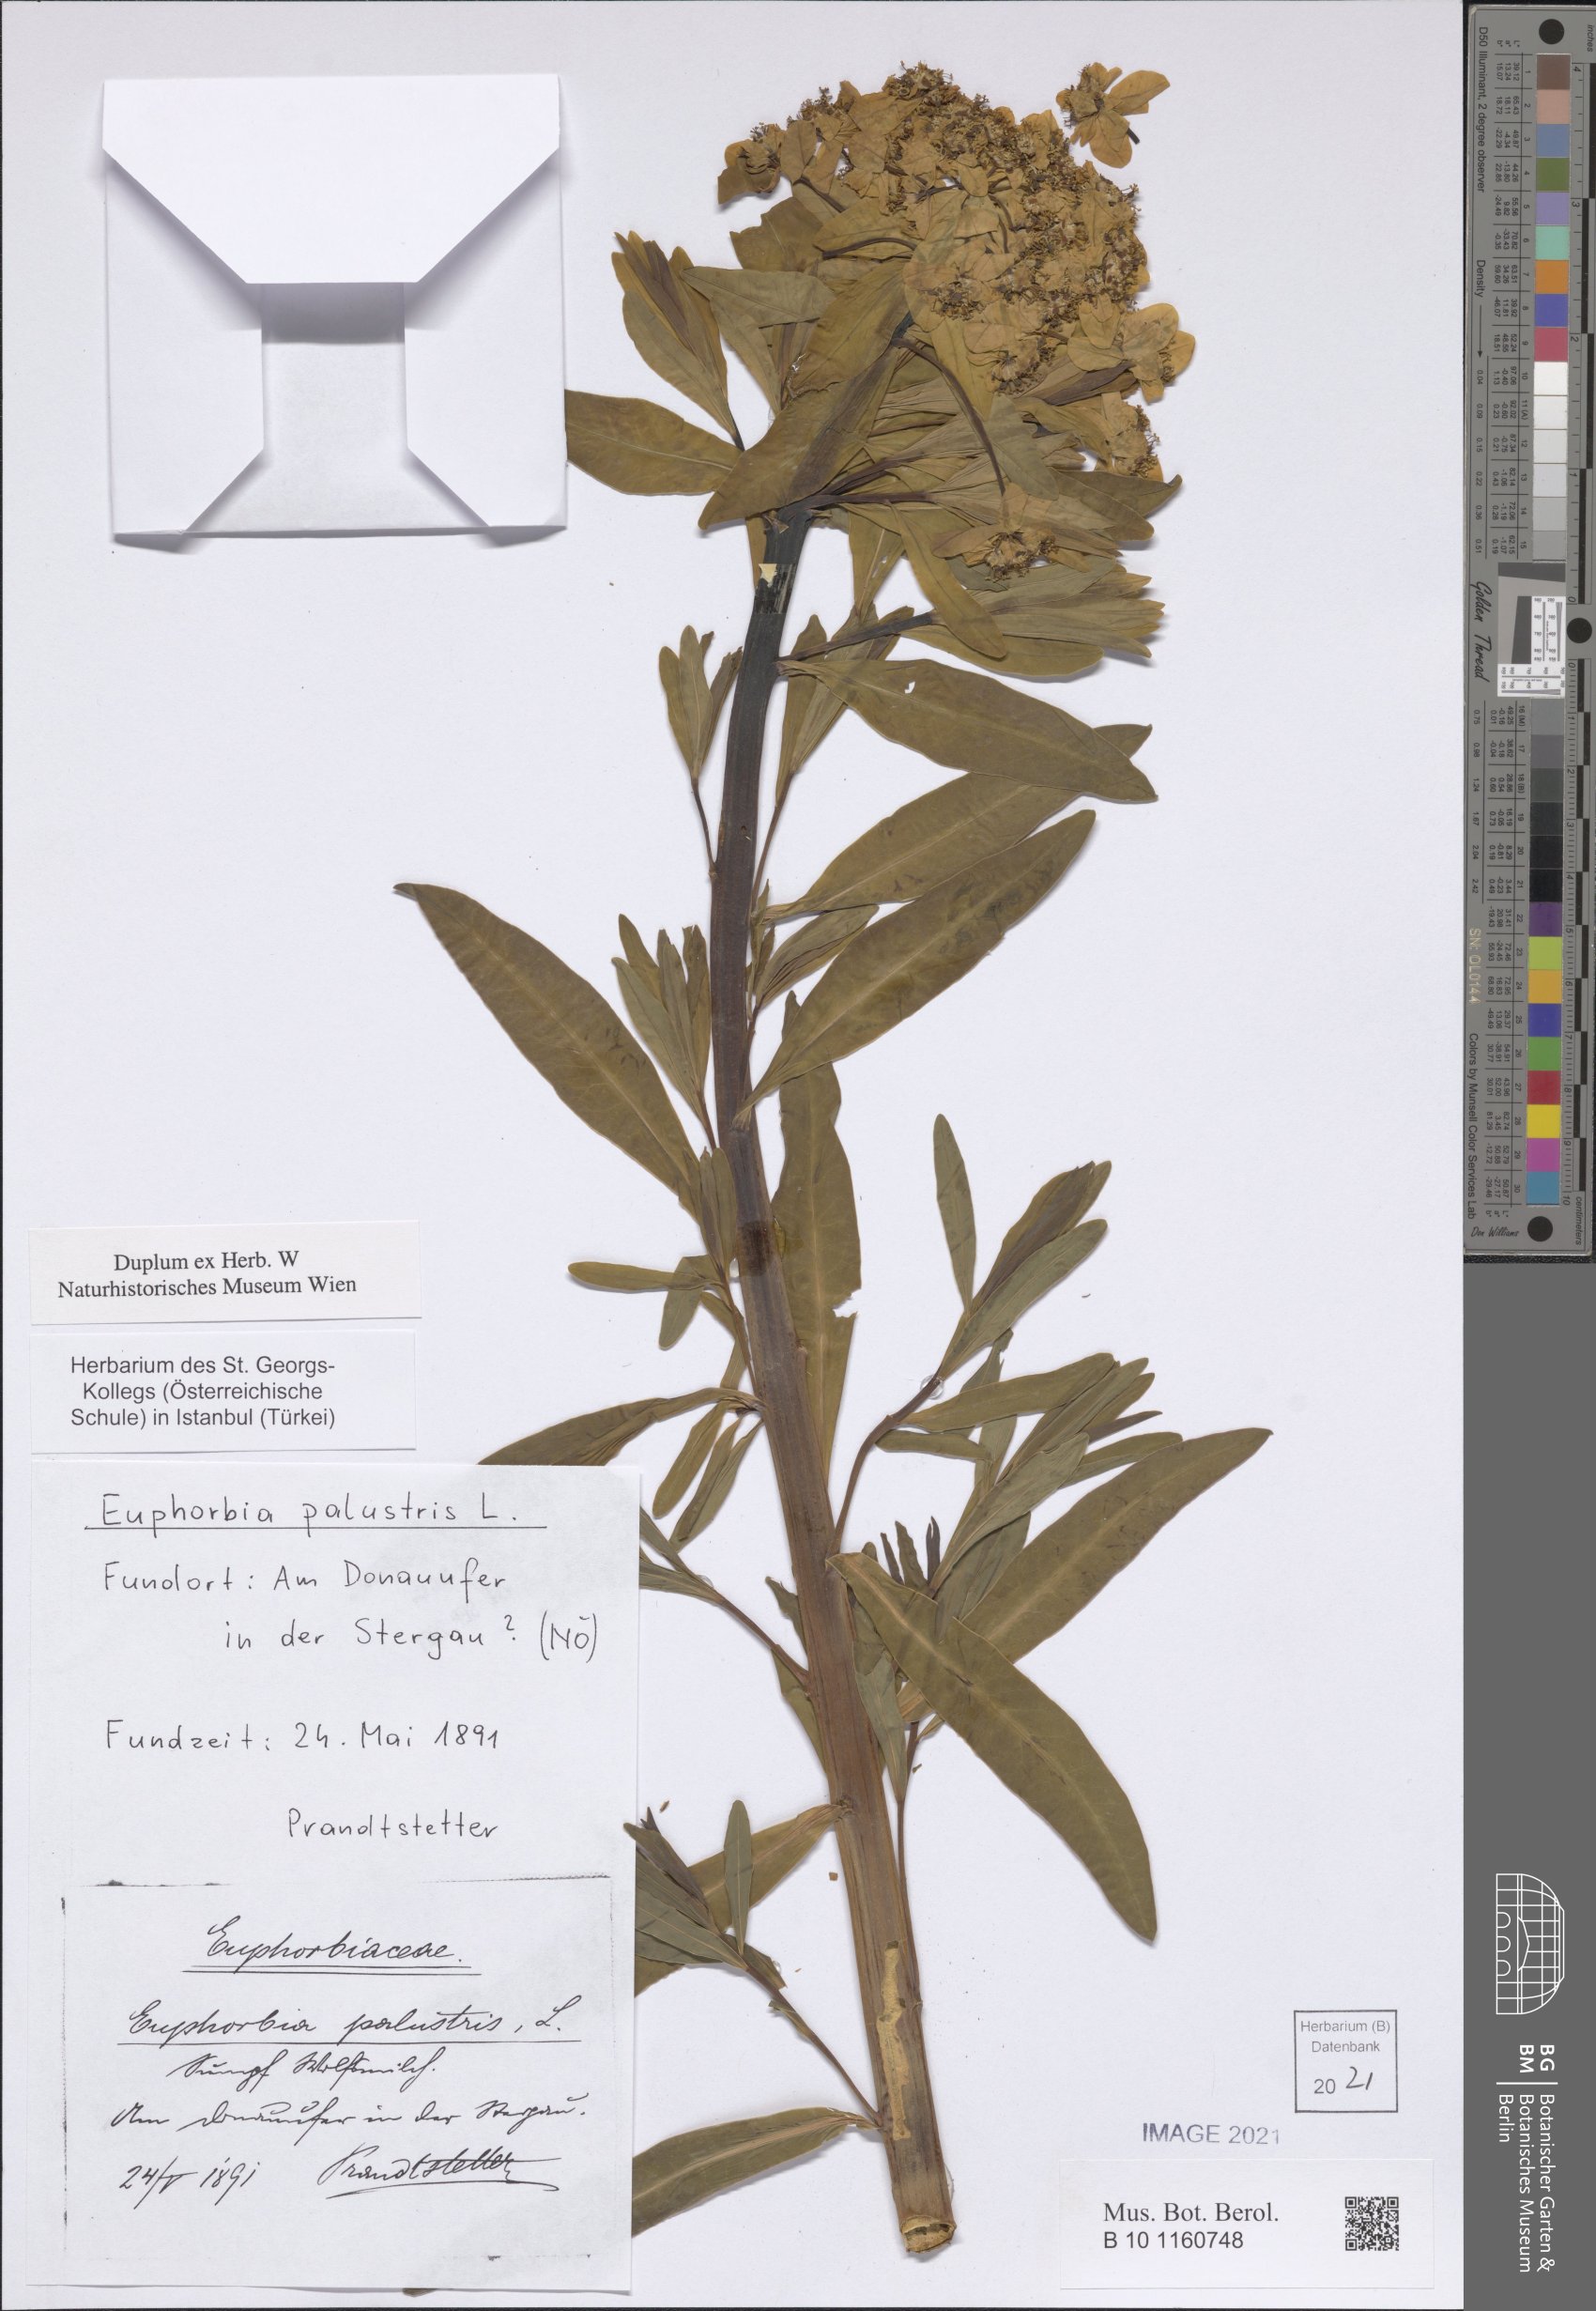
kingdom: Plantae
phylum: Tracheophyta
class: Magnoliopsida
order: Malpighiales
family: Euphorbiaceae
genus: Euphorbia
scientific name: Euphorbia palustris
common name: Marsh spurge
